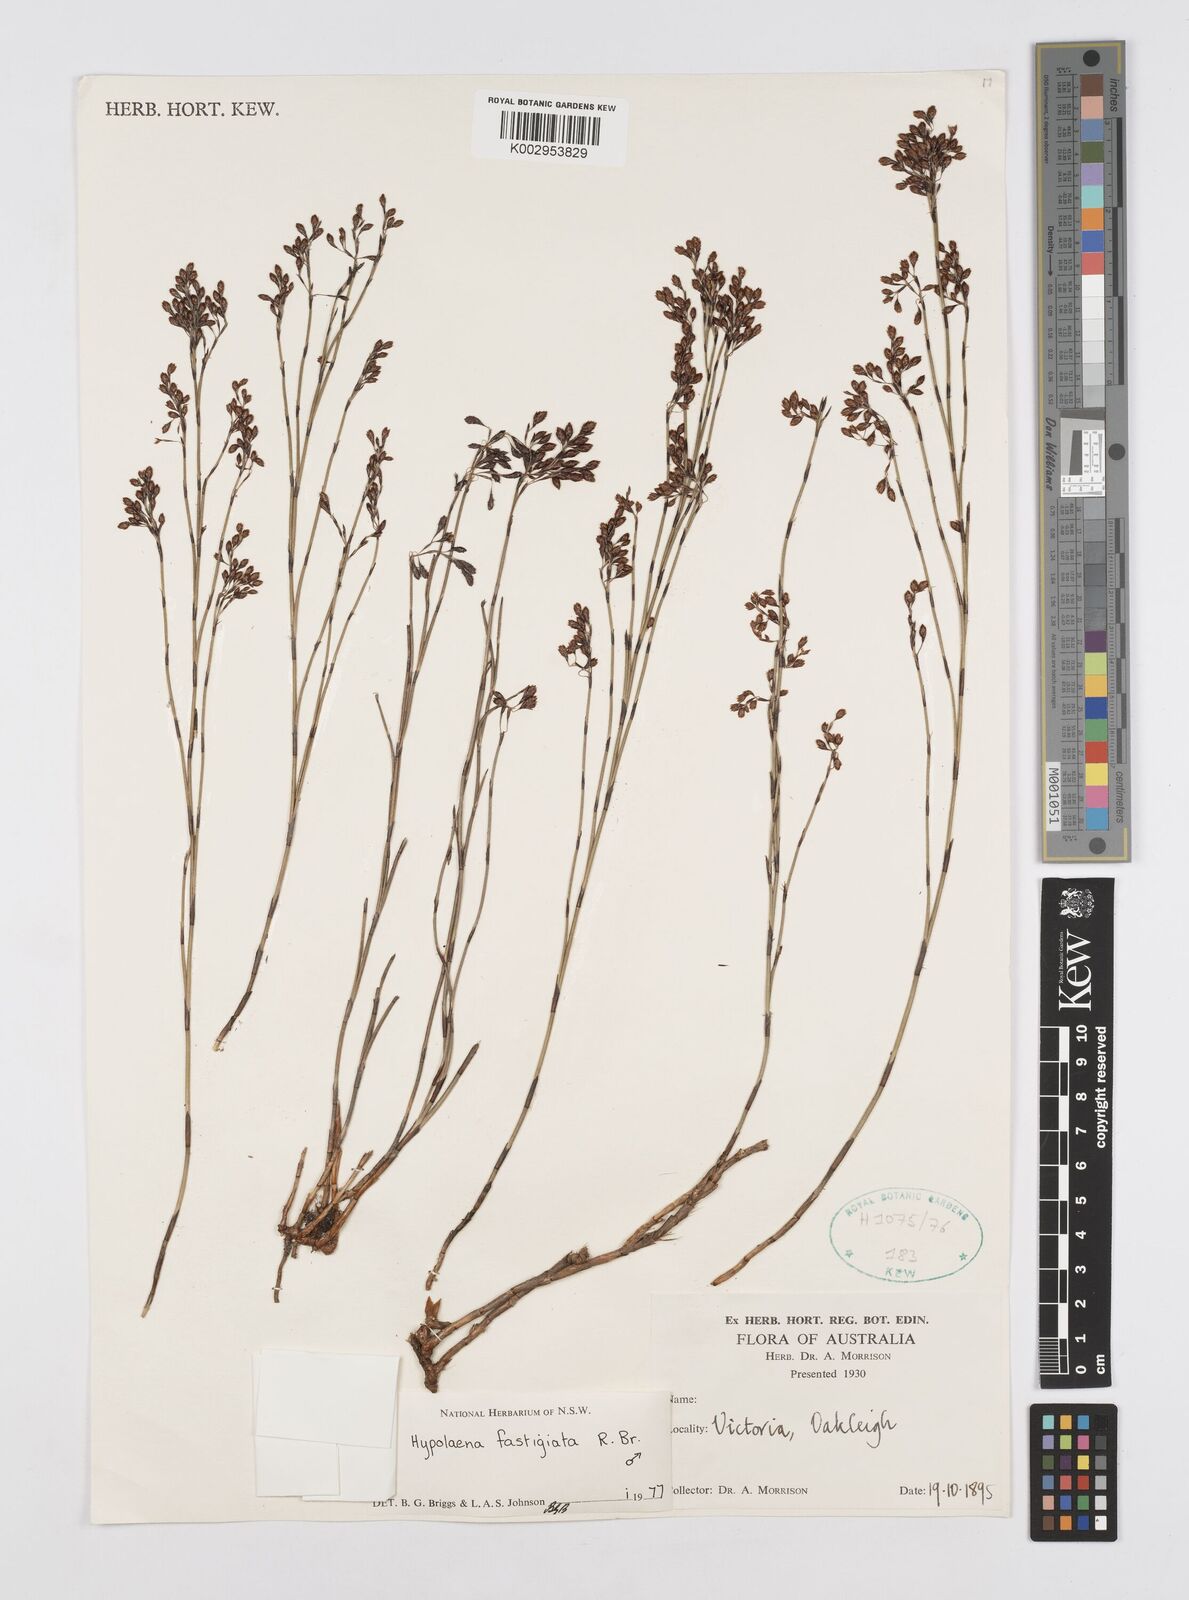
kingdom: Plantae
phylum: Tracheophyta
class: Liliopsida
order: Poales
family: Restionaceae
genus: Hypolaena
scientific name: Hypolaena fastigiata
